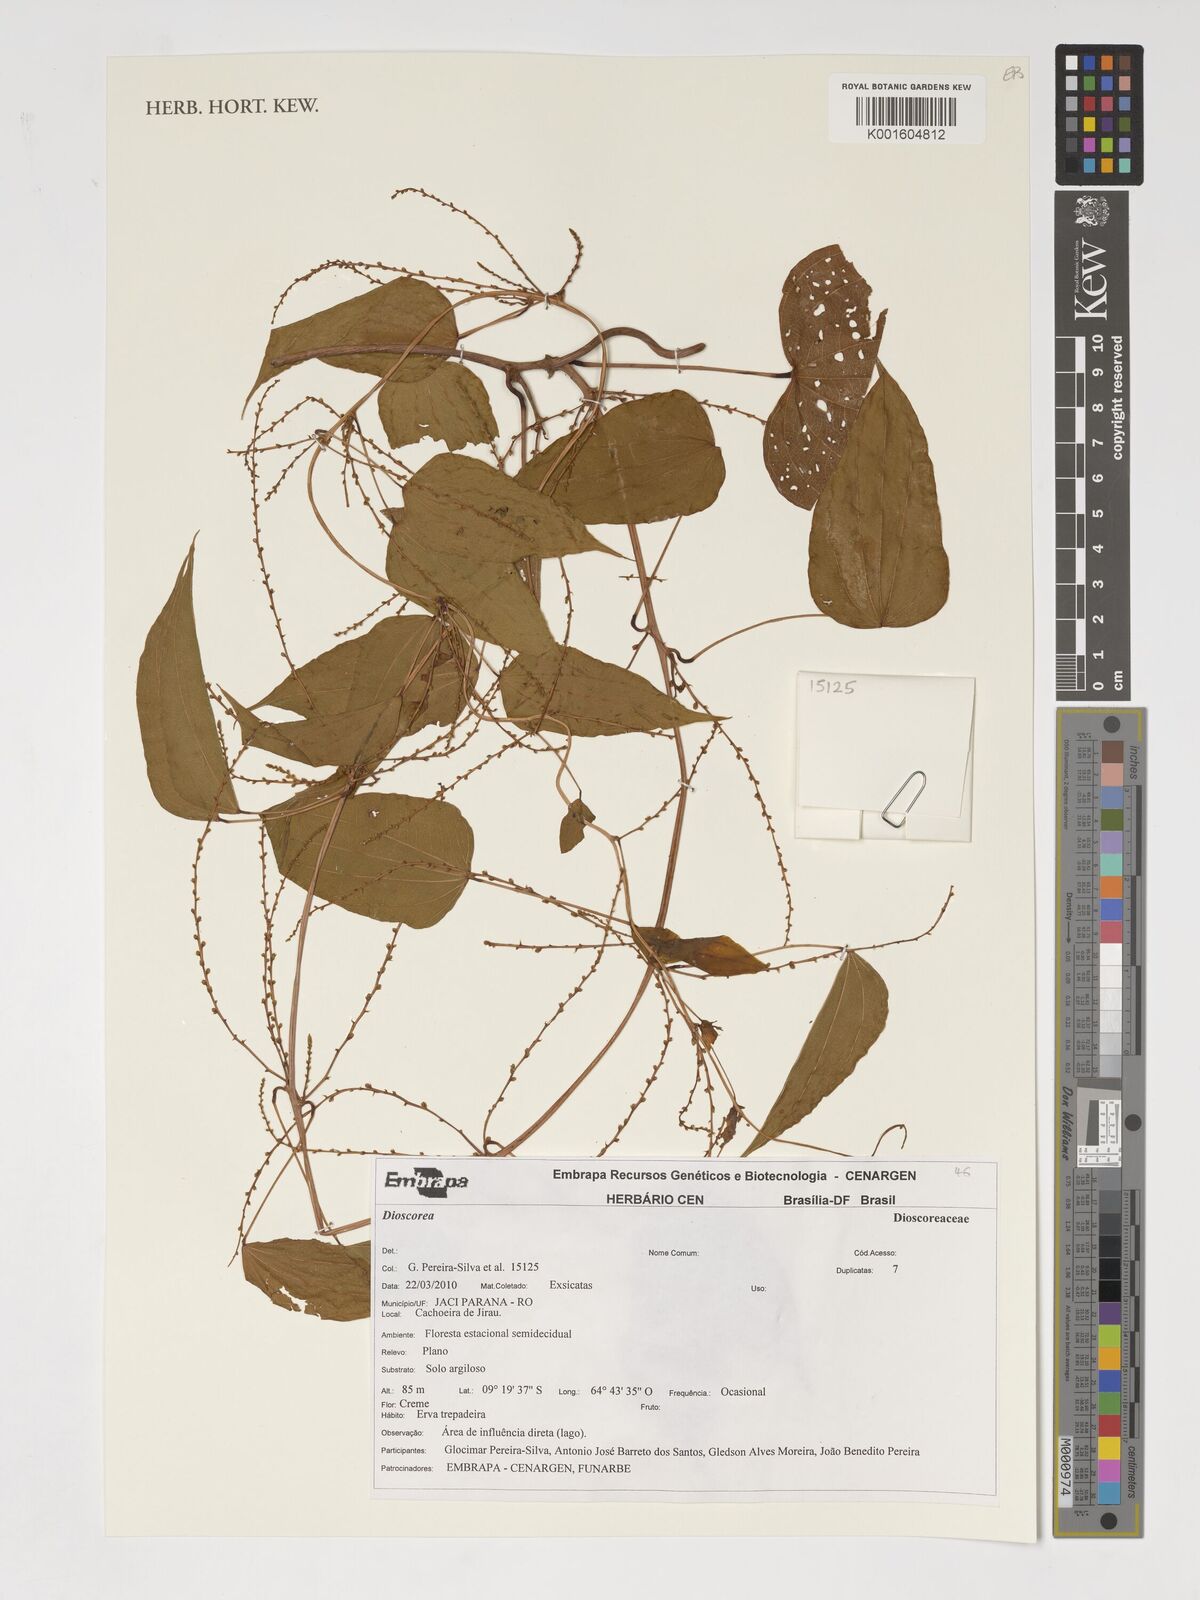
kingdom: Plantae
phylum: Tracheophyta
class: Liliopsida
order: Dioscoreales
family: Dioscoreaceae
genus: Dioscorea
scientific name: Dioscorea
